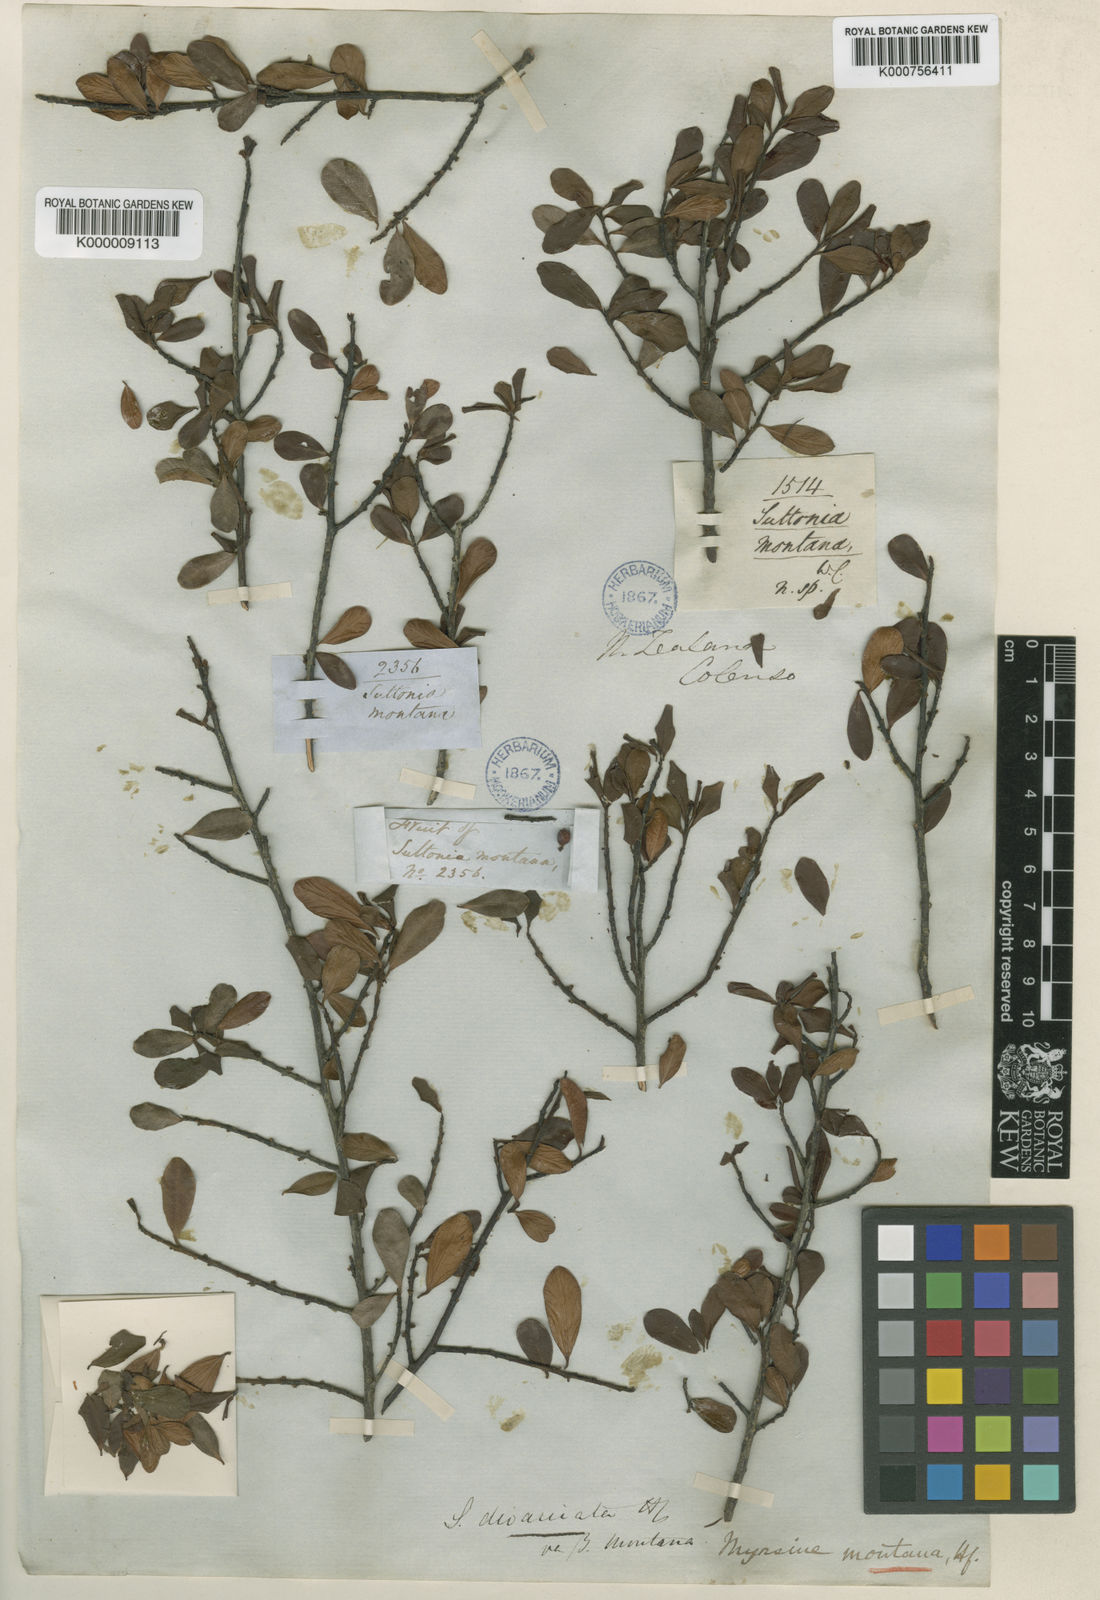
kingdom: Plantae
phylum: Tracheophyta
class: Magnoliopsida
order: Ericales
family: Primulaceae
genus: Myrsine
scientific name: Myrsine montana
